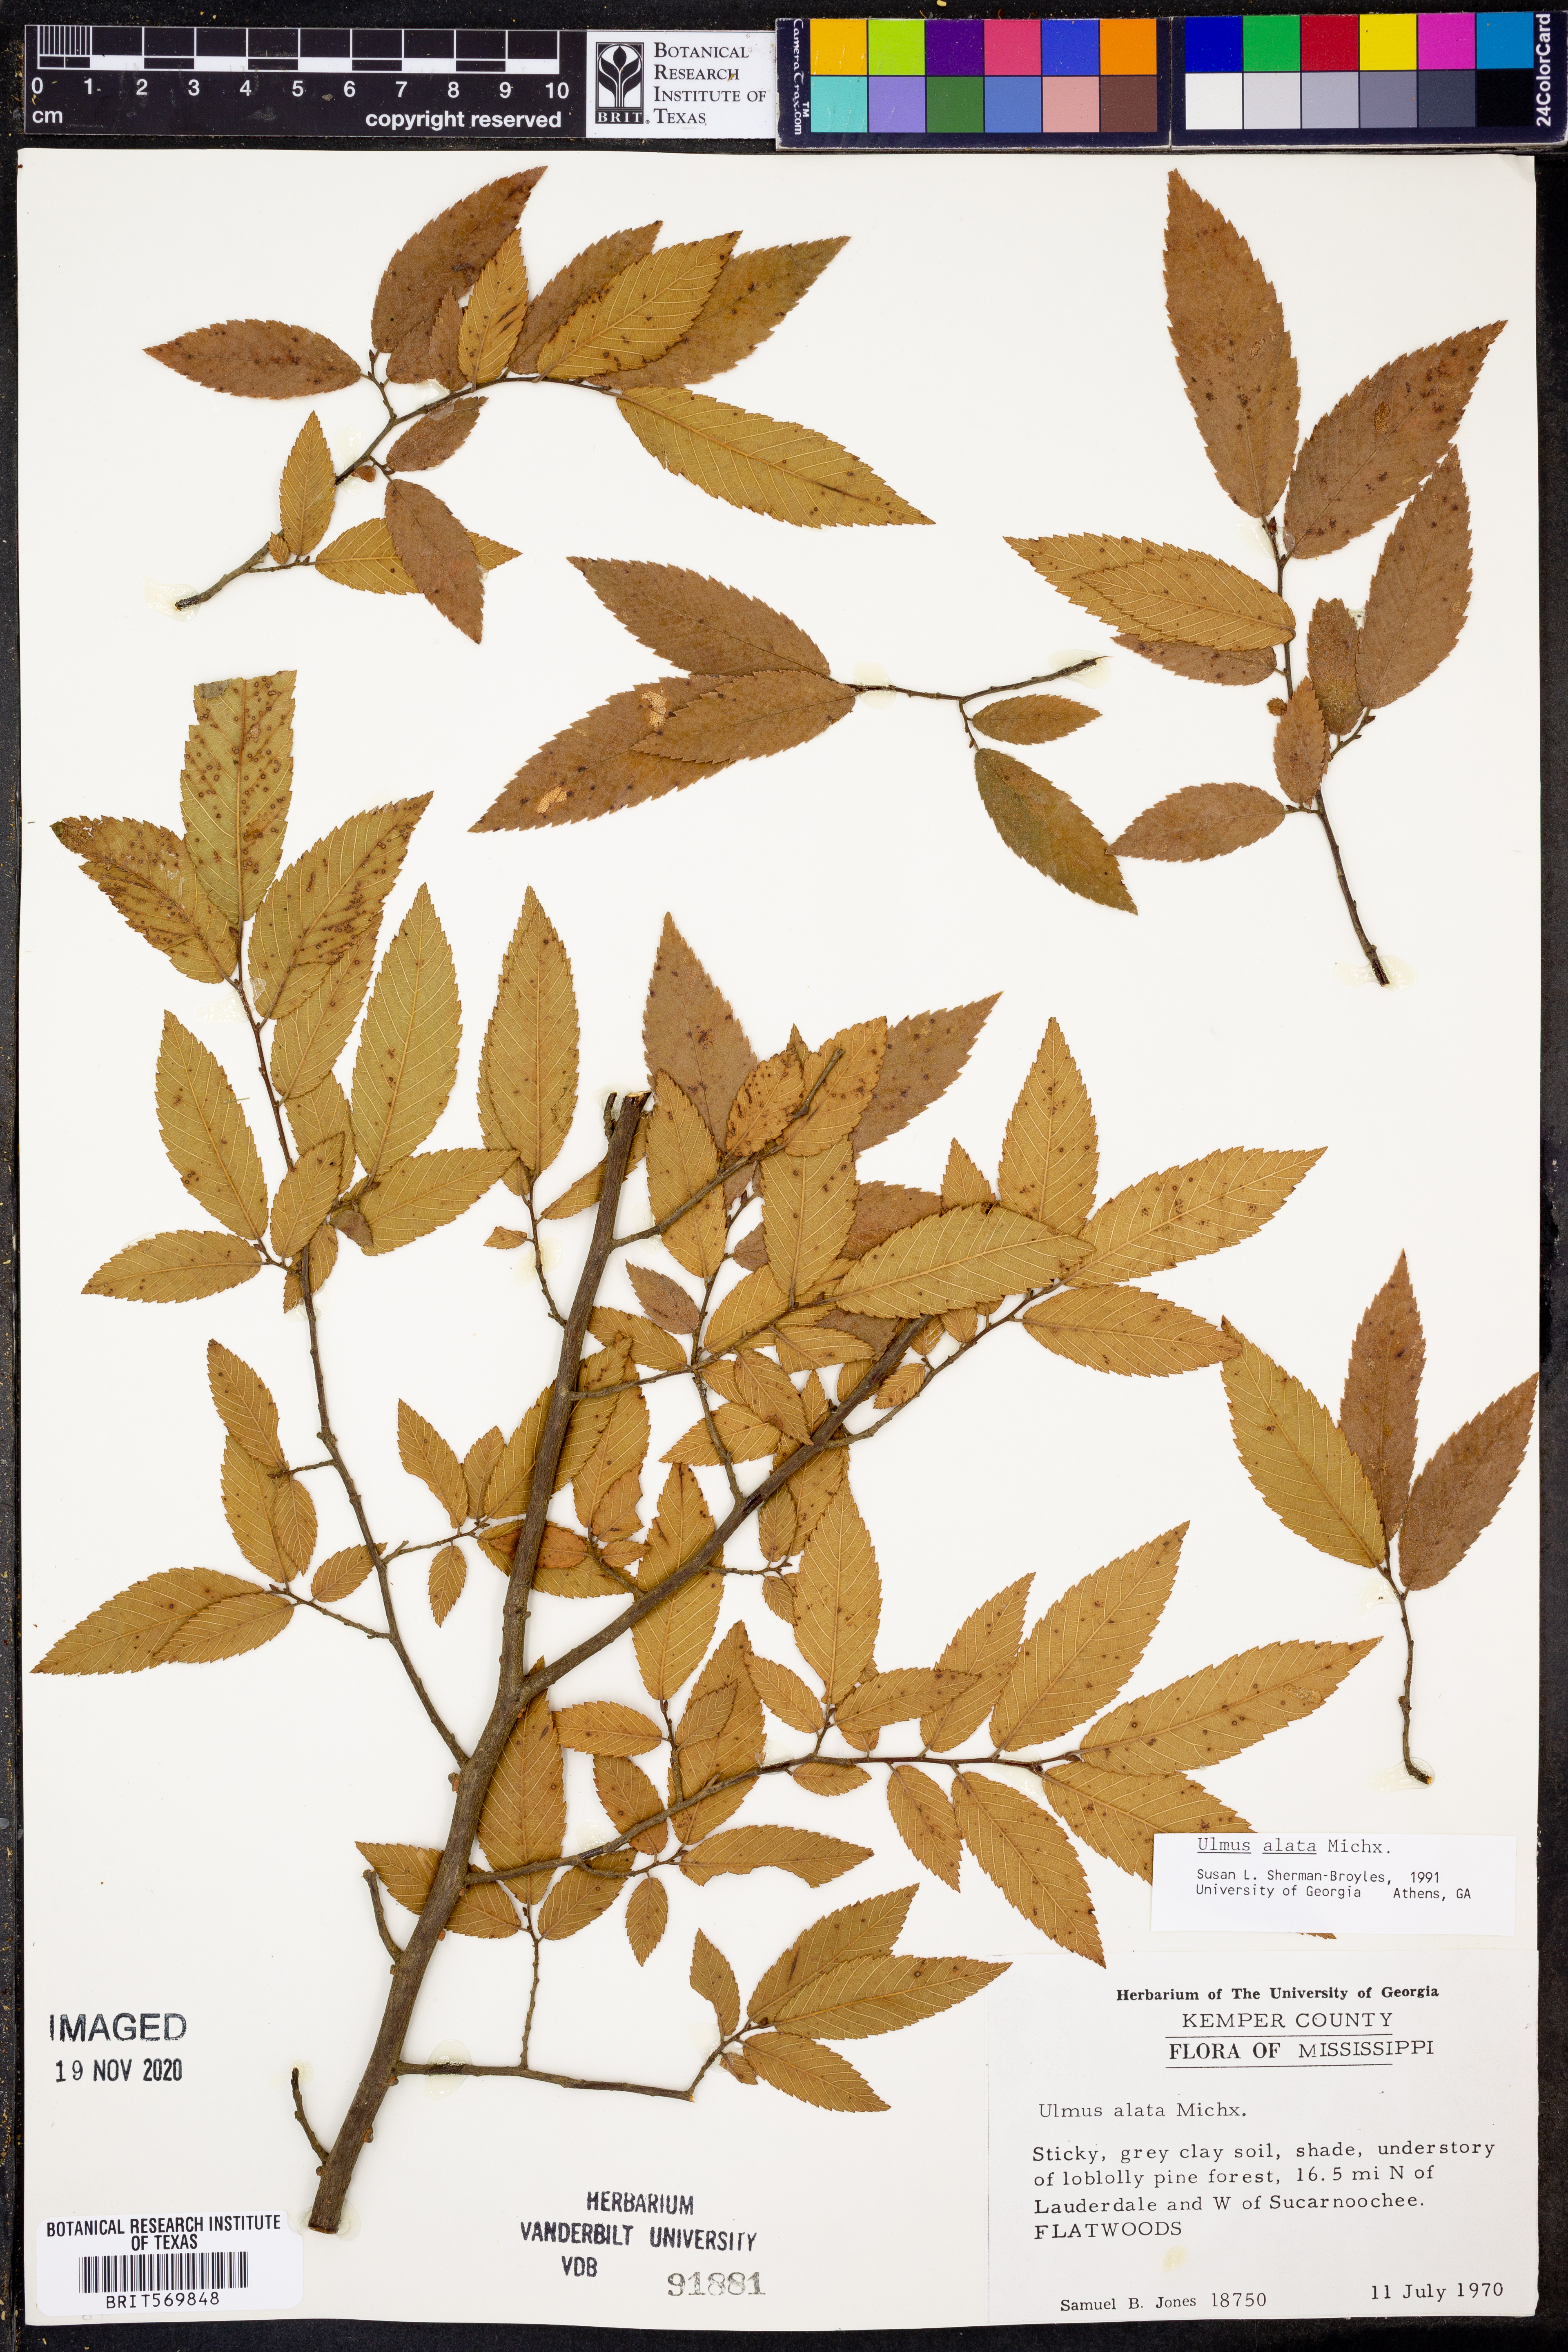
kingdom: Plantae
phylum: Tracheophyta
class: Magnoliopsida
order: Rosales
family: Ulmaceae
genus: Ulmus
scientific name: Ulmus alata
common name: Winged elm
